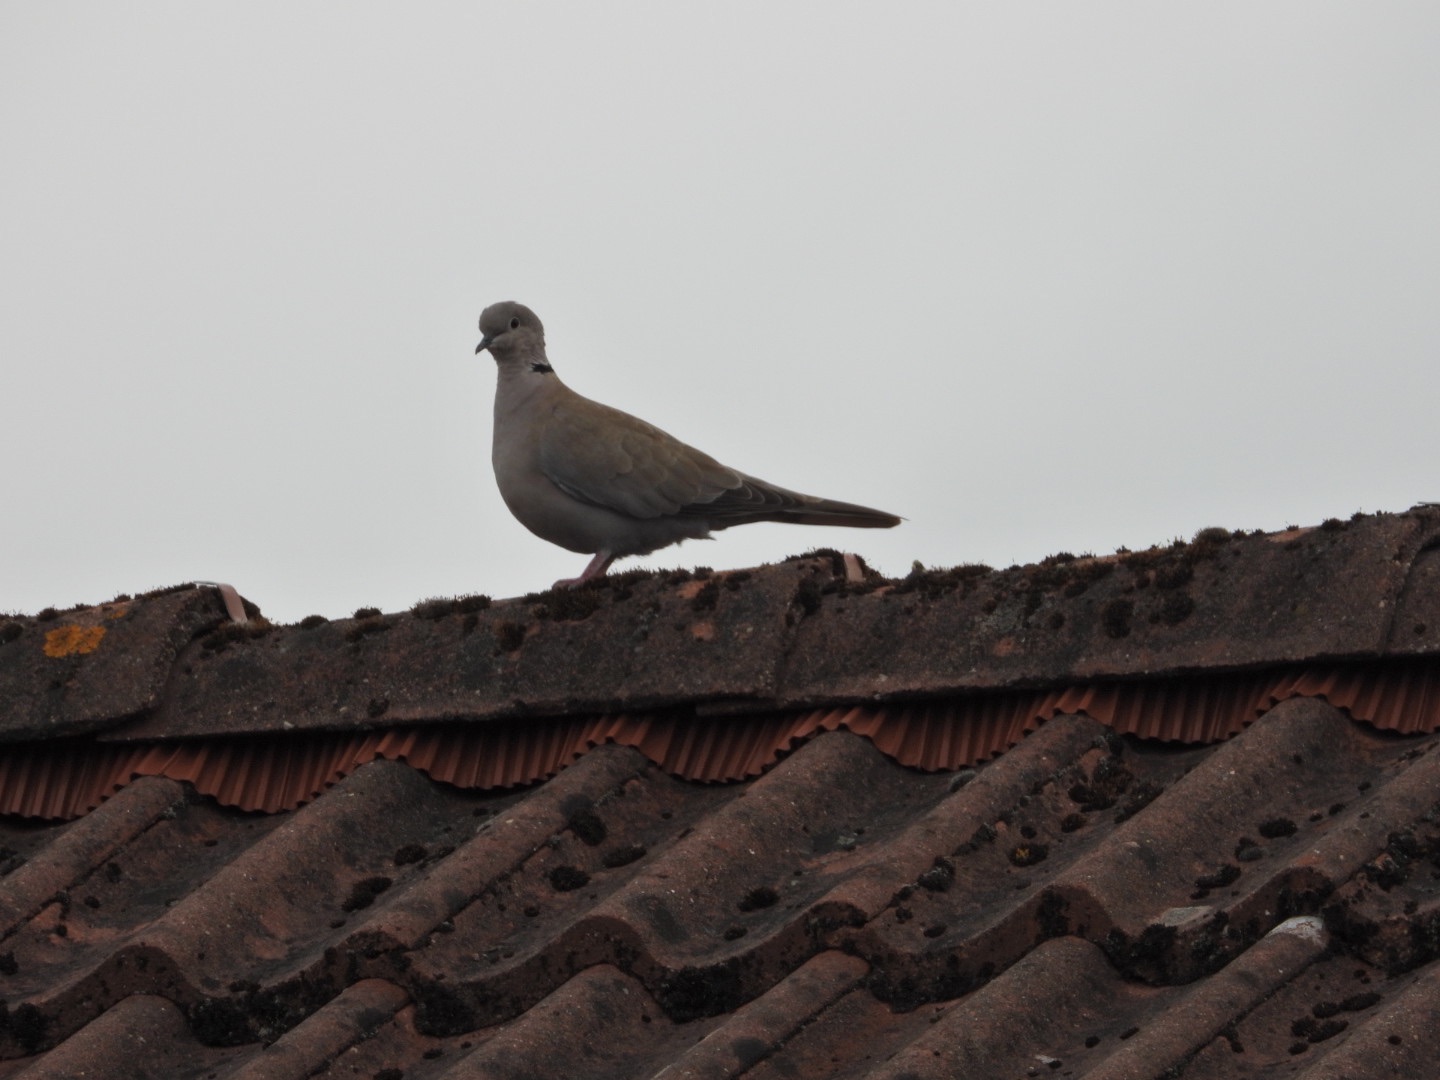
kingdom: Animalia
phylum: Chordata
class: Aves
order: Columbiformes
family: Columbidae
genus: Streptopelia
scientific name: Streptopelia decaocto
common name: Tyrkerdue
